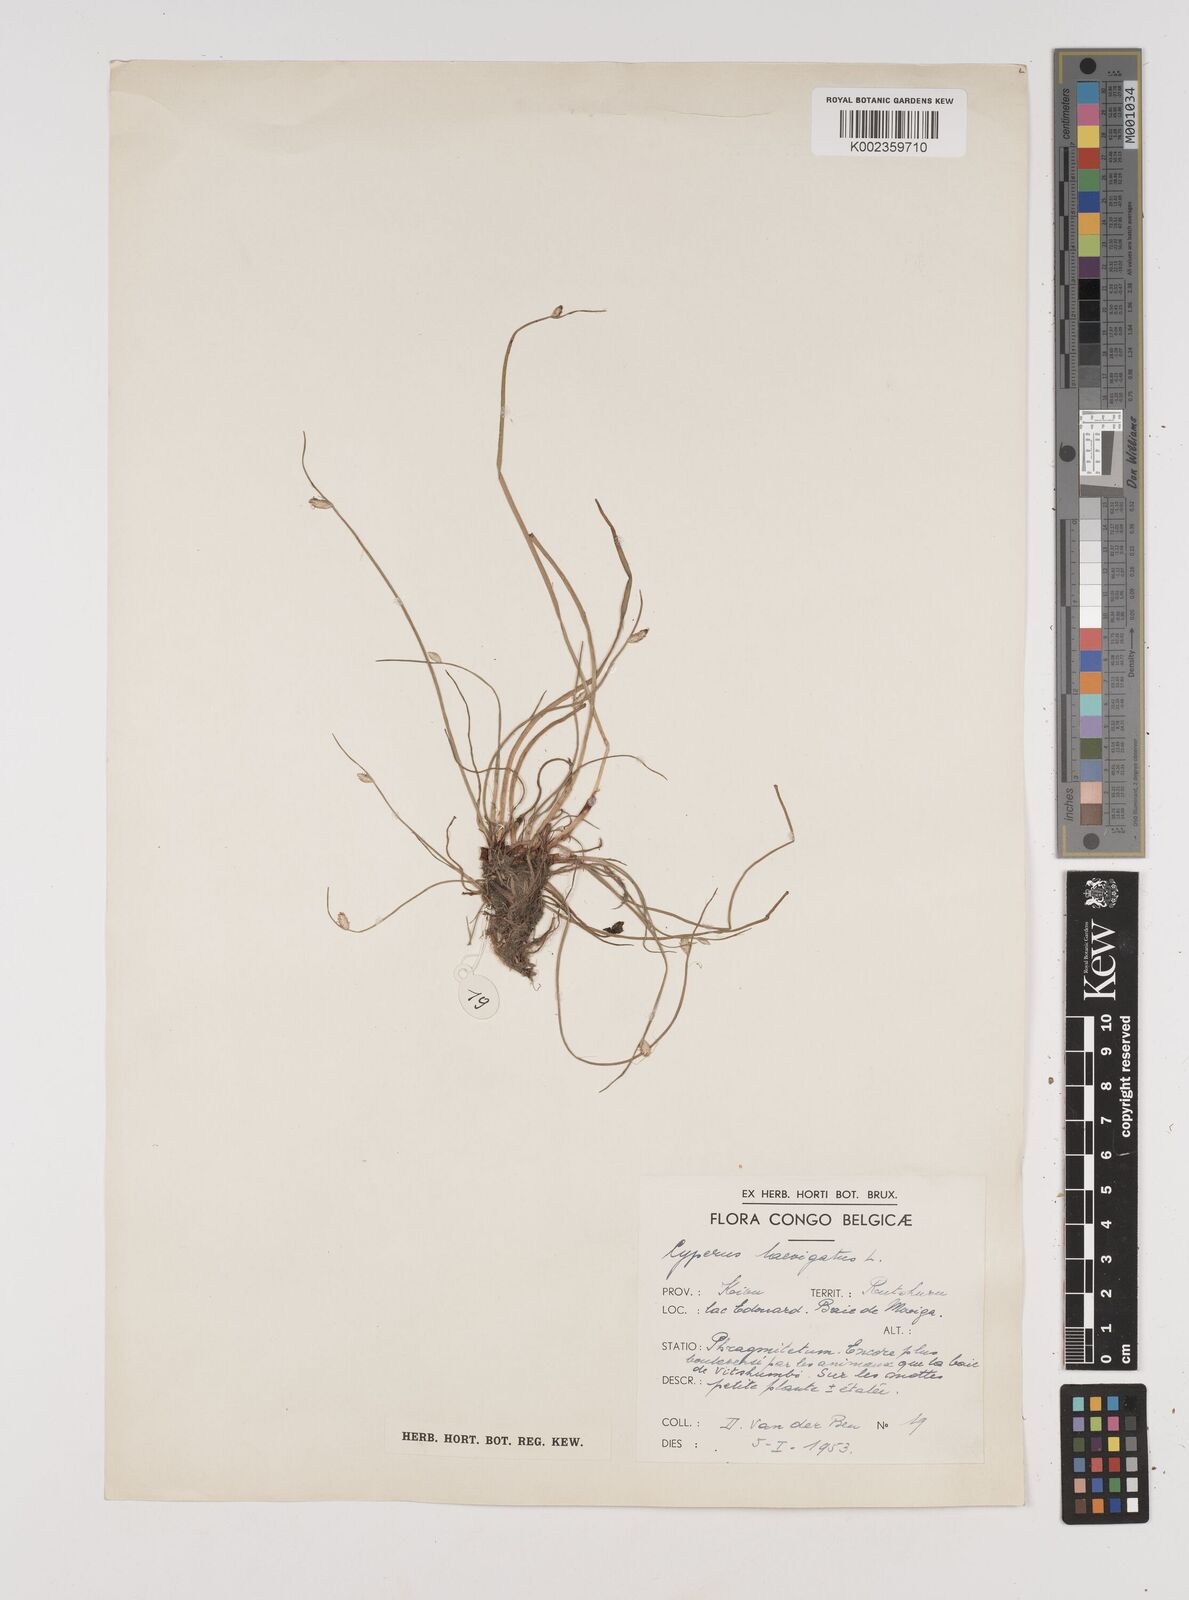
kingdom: Plantae
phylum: Tracheophyta
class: Liliopsida
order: Poales
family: Cyperaceae
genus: Cyperus
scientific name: Cyperus laevigatus
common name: Smooth flat sedge
